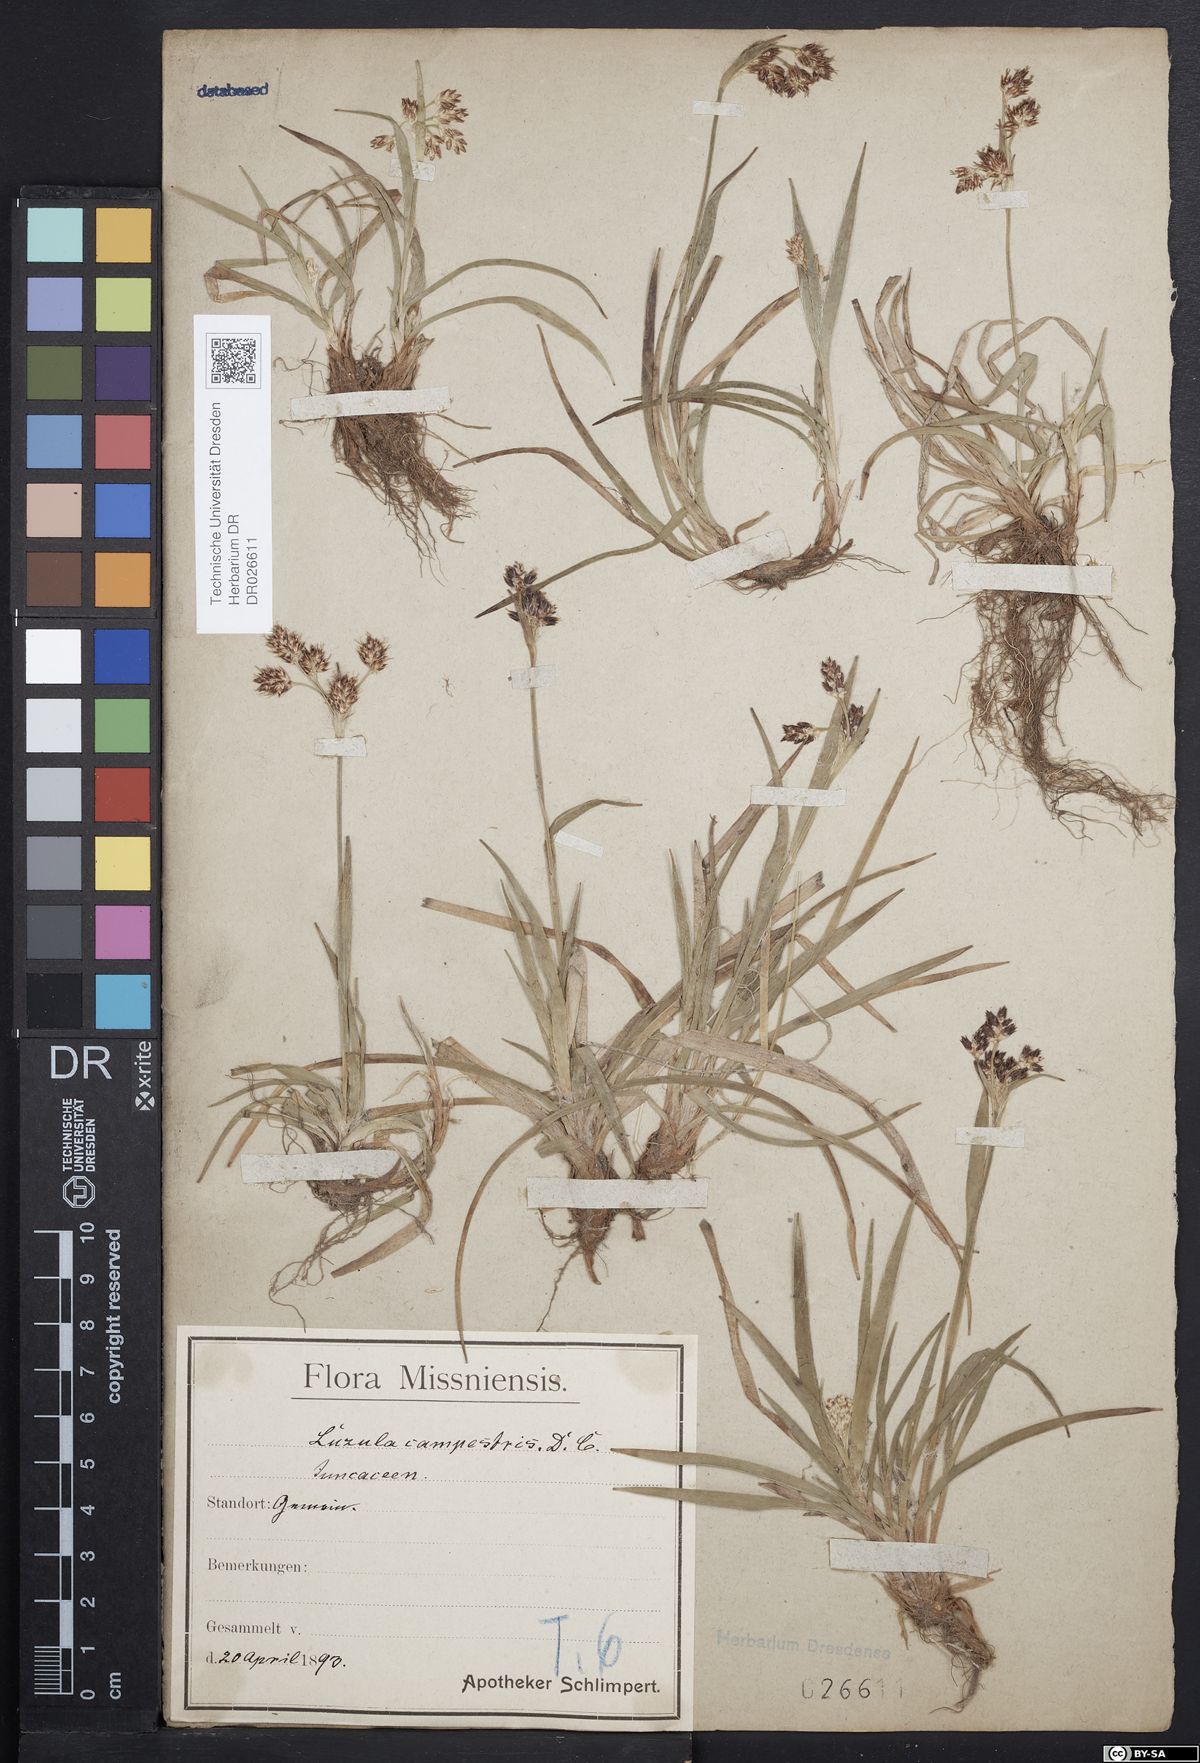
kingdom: Plantae
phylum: Tracheophyta
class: Liliopsida
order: Poales
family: Juncaceae
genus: Luzula
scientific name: Luzula campestris
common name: Field wood-rush
